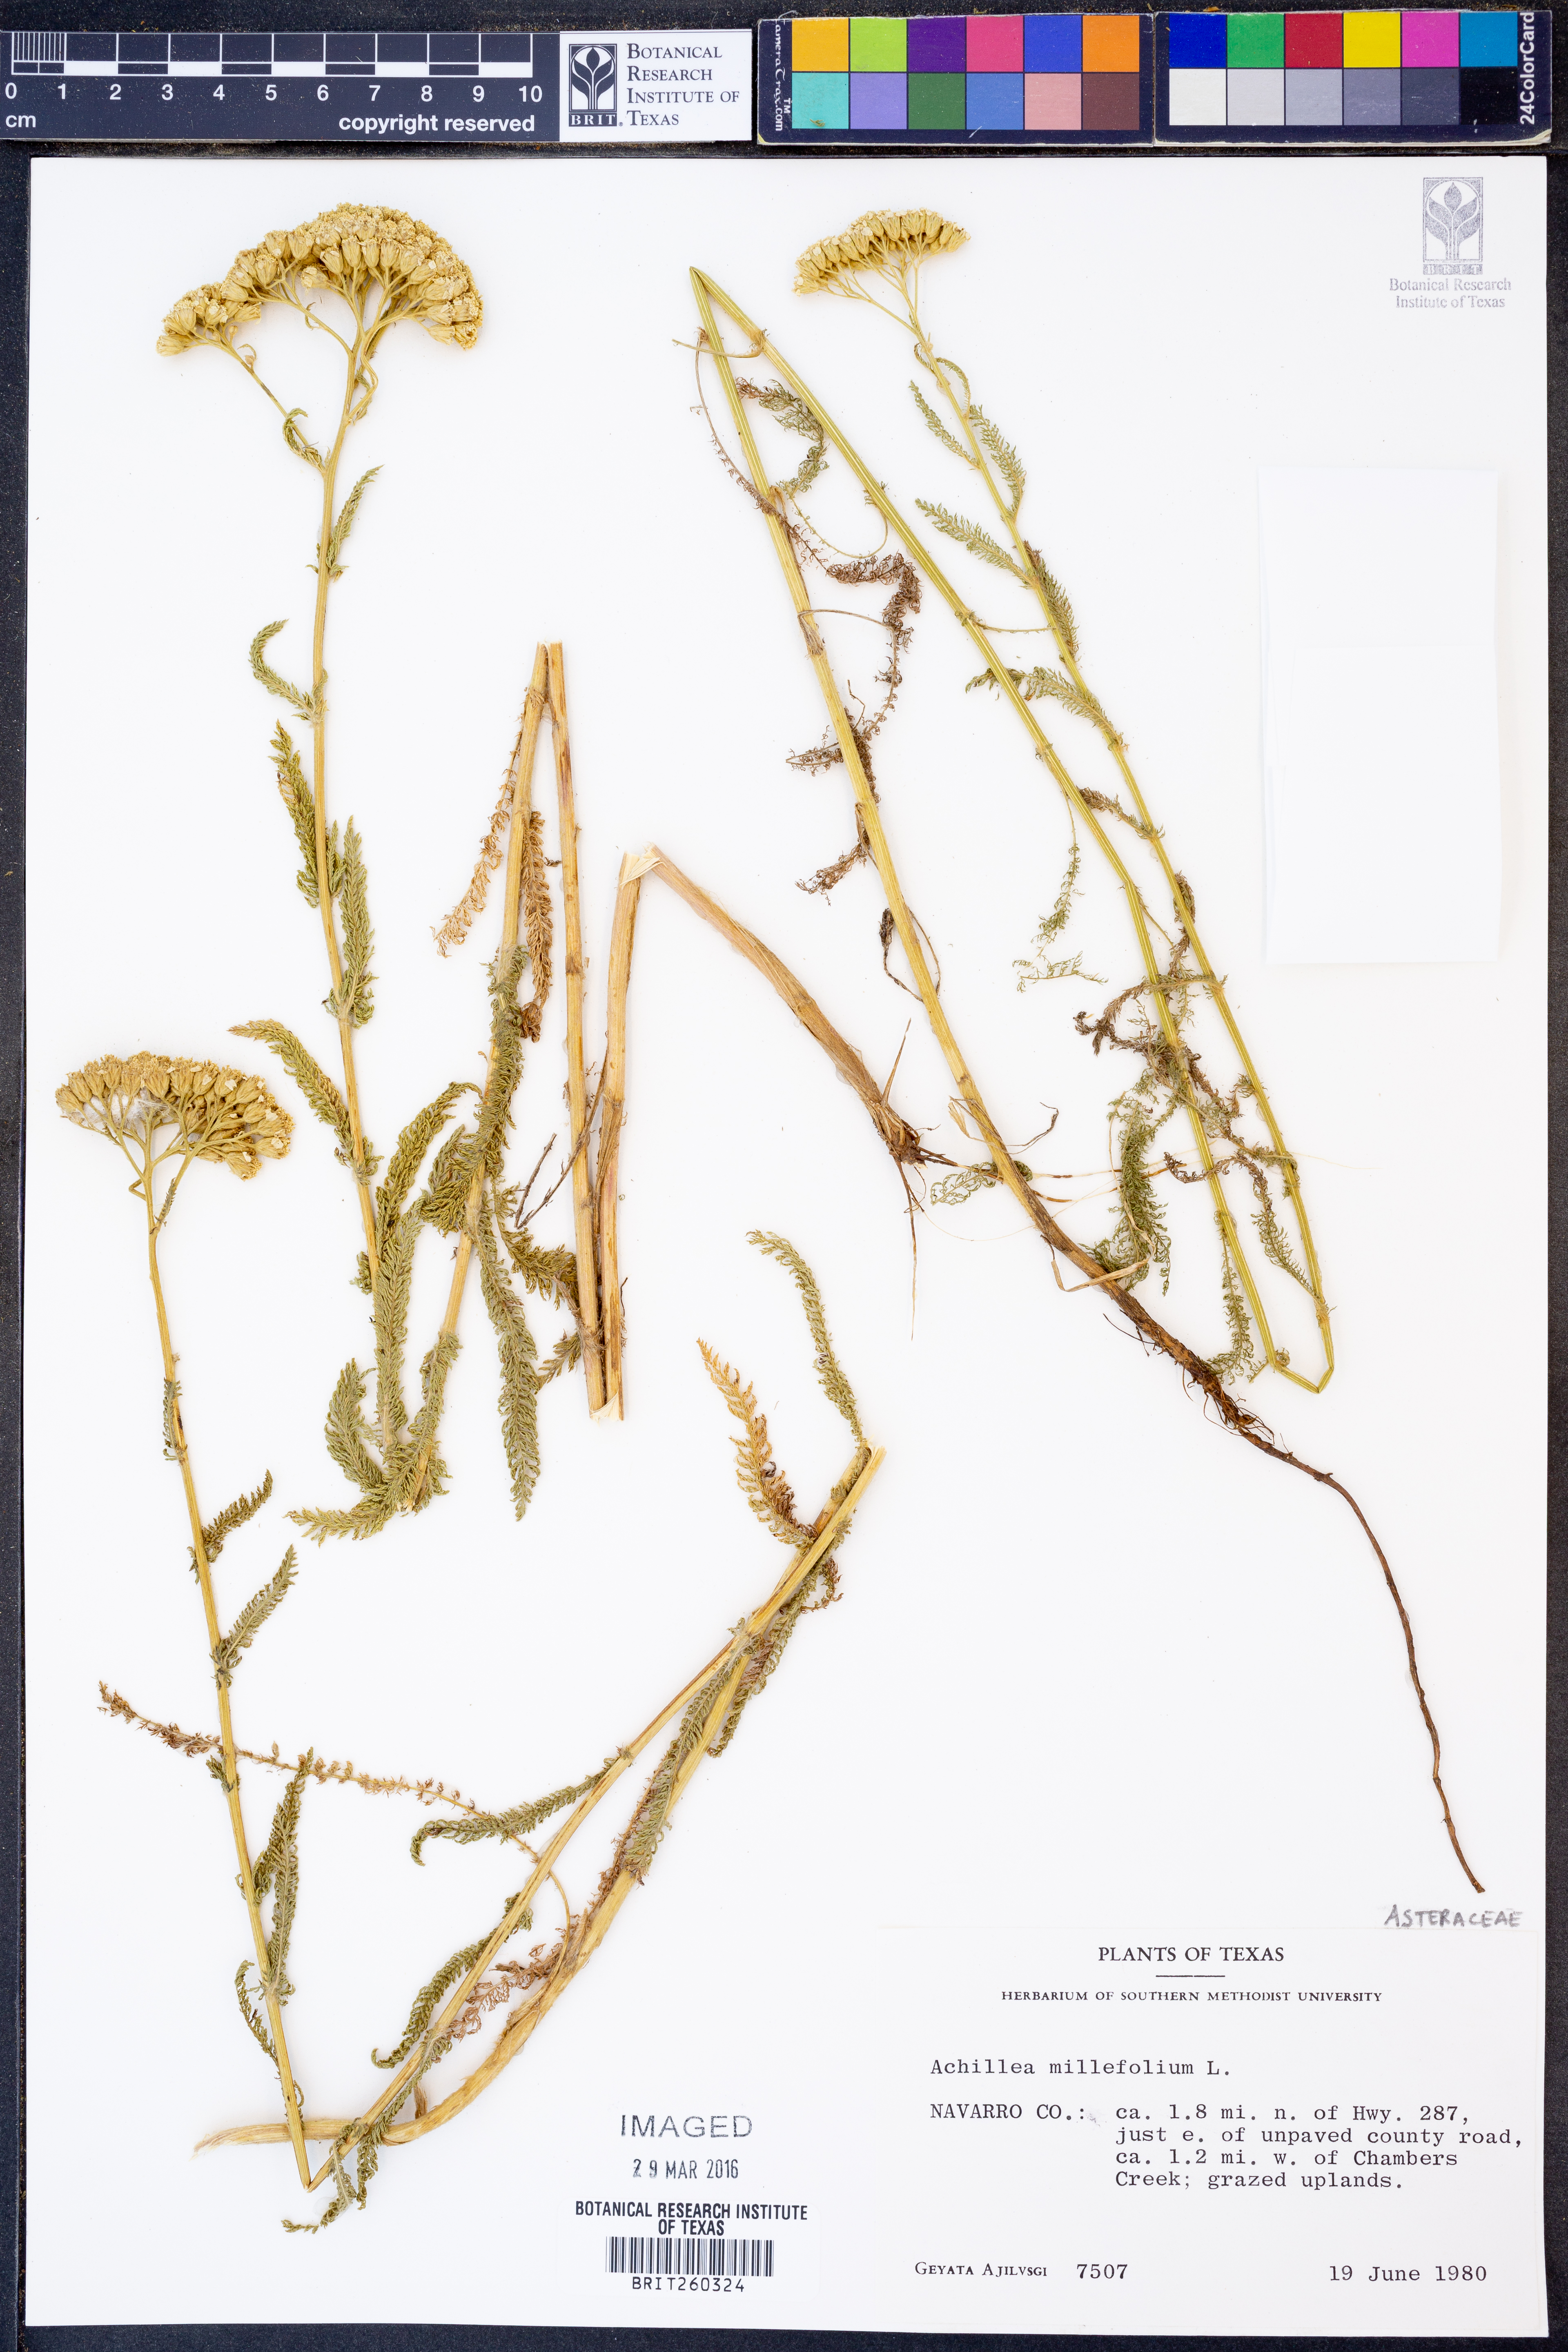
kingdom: Plantae
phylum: Tracheophyta
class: Magnoliopsida
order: Asterales
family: Asteraceae
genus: Achillea
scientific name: Achillea millefolium
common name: Yarrow
